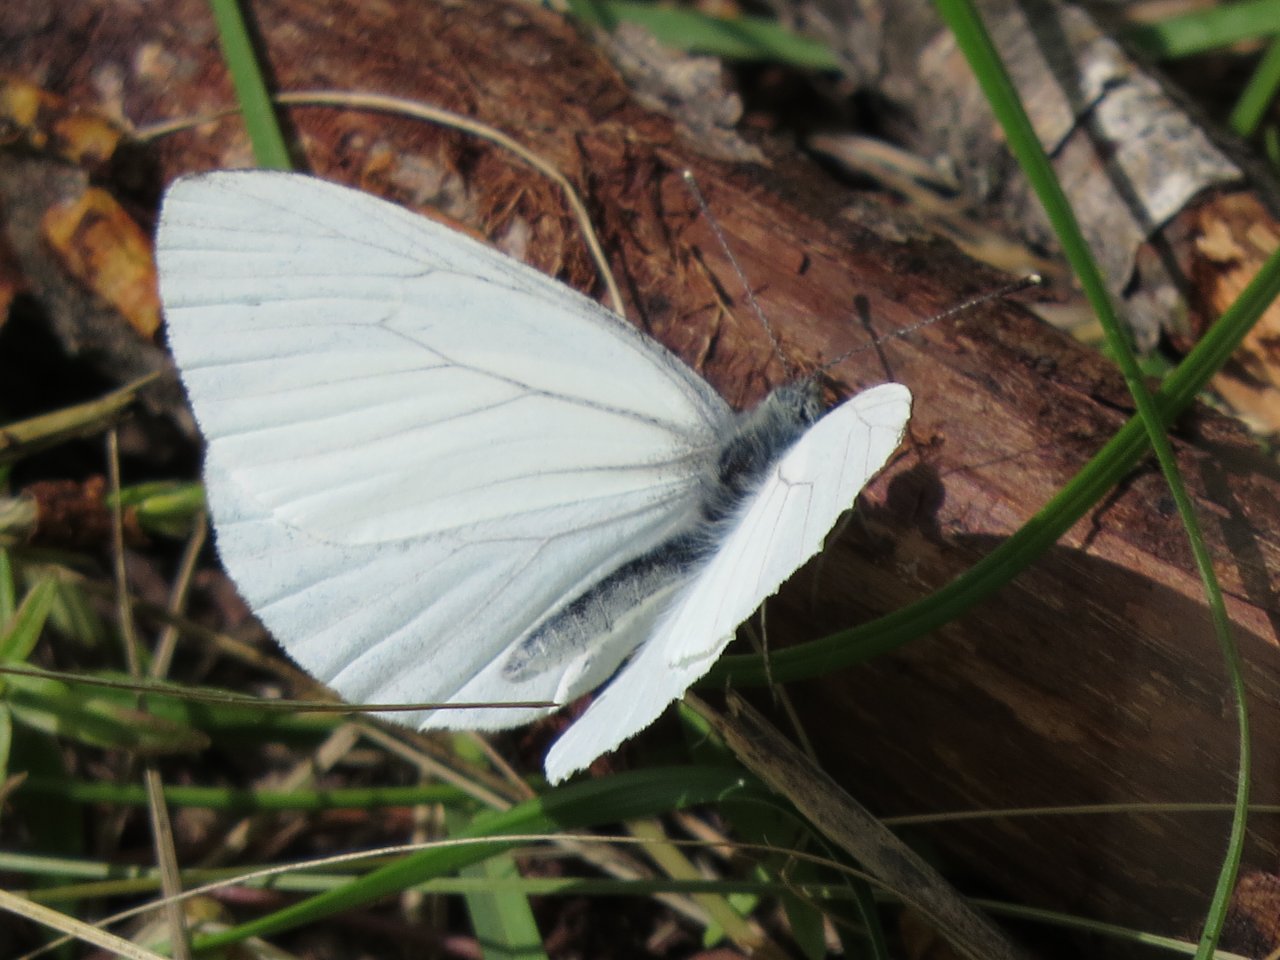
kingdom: Animalia
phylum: Arthropoda
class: Insecta
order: Lepidoptera
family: Pieridae
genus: Pieris
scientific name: Pieris oleracea
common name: Mustard White
